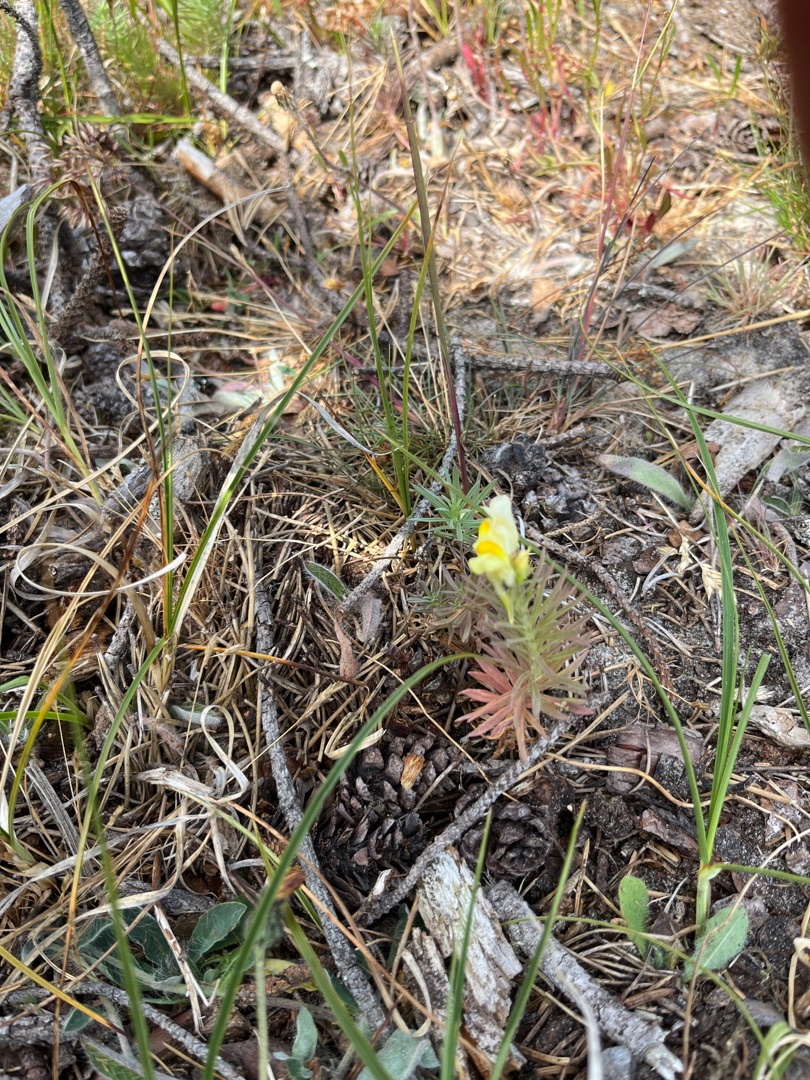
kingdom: Plantae
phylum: Tracheophyta
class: Magnoliopsida
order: Lamiales
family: Plantaginaceae
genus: Linaria
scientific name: Linaria vulgaris
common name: Almindelig torskemund
